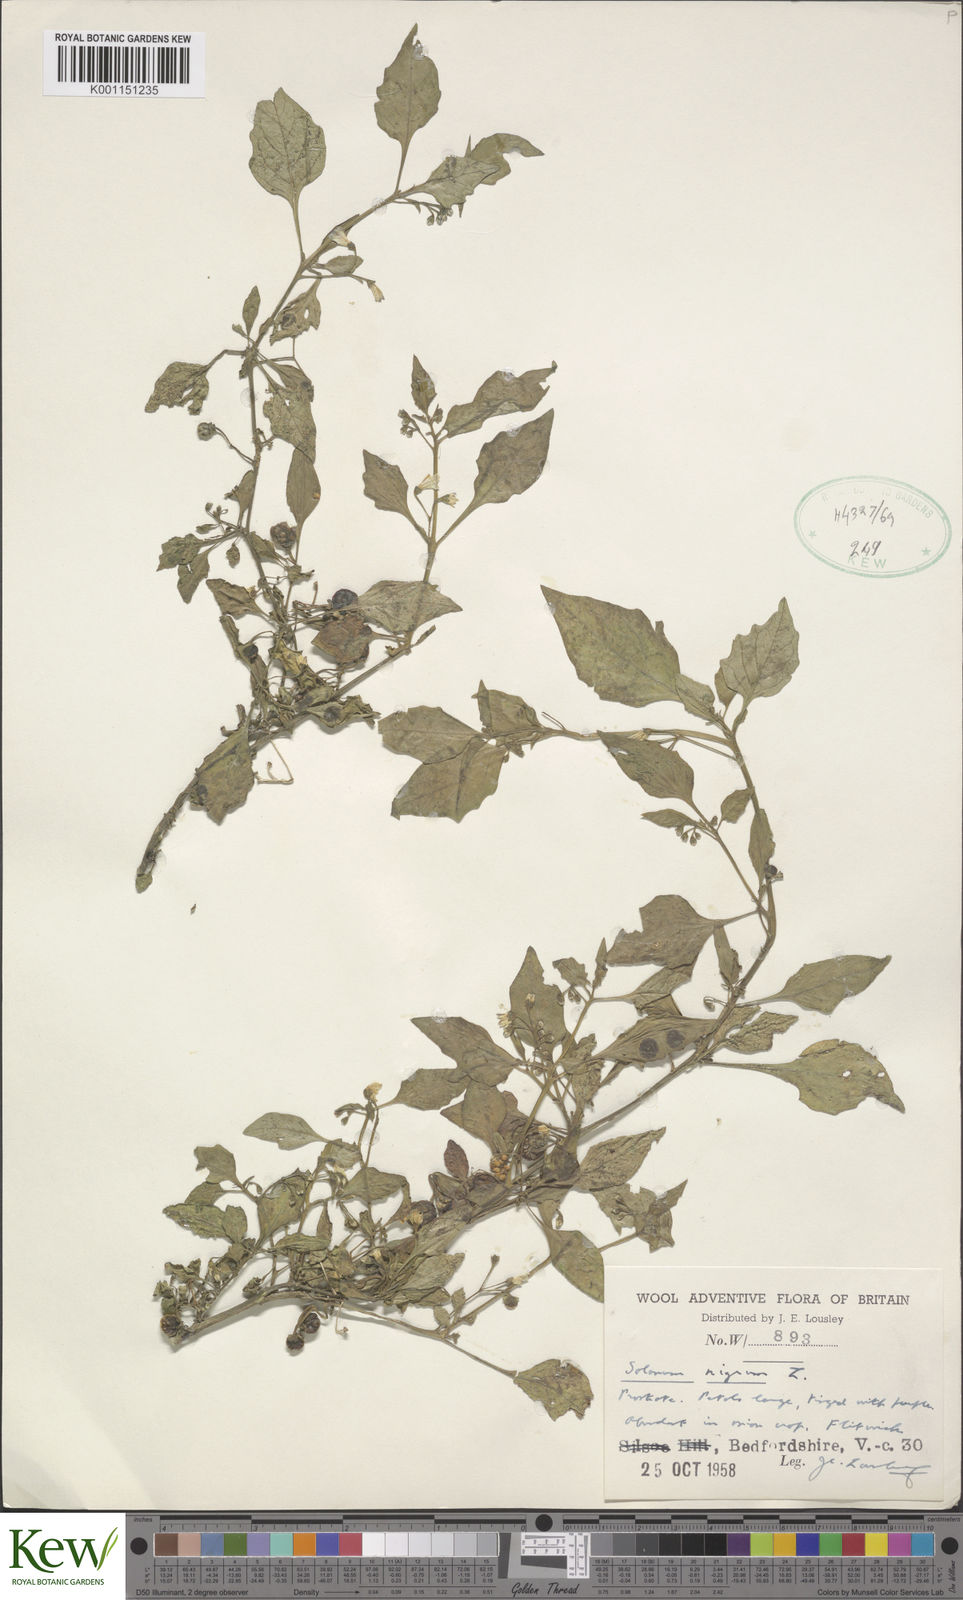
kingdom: Plantae
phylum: Tracheophyta
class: Magnoliopsida
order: Solanales
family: Solanaceae
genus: Solanum
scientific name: Solanum nigrum
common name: Black nightshade
